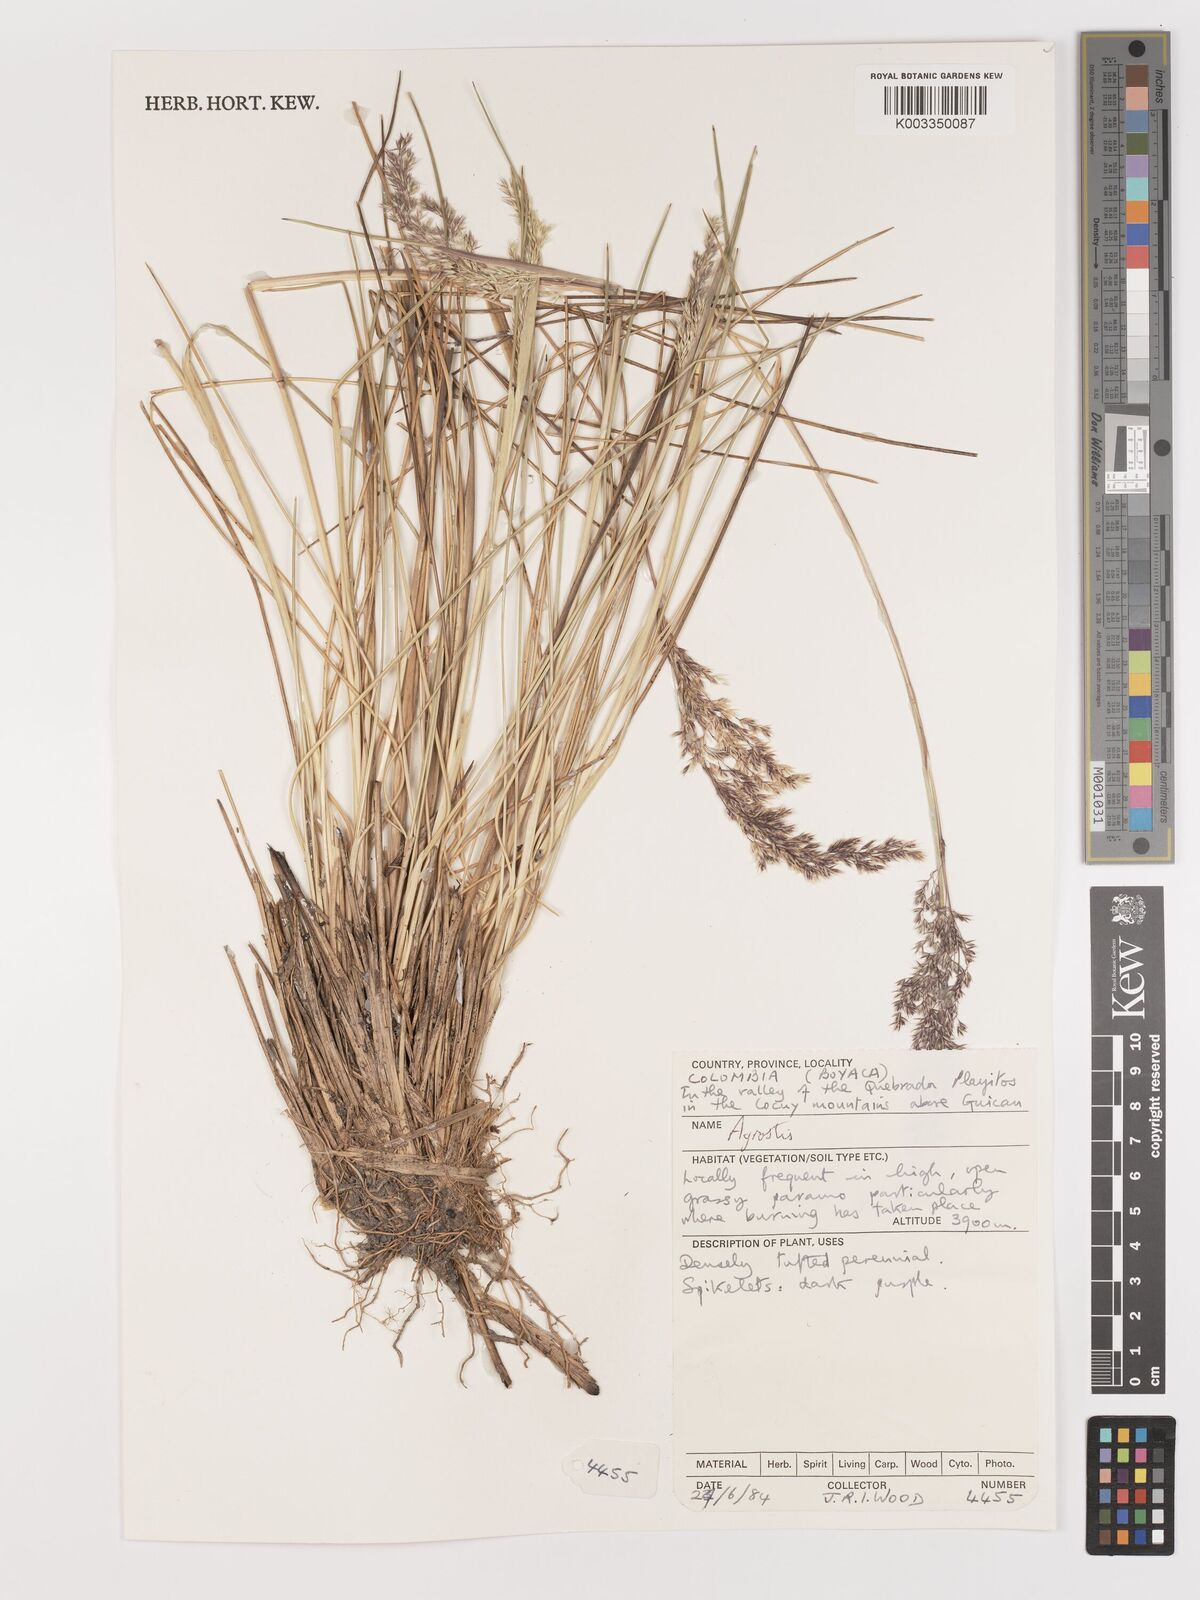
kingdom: Plantae
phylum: Tracheophyta
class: Liliopsida
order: Poales
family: Poaceae
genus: Agrostis
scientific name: Agrostis
